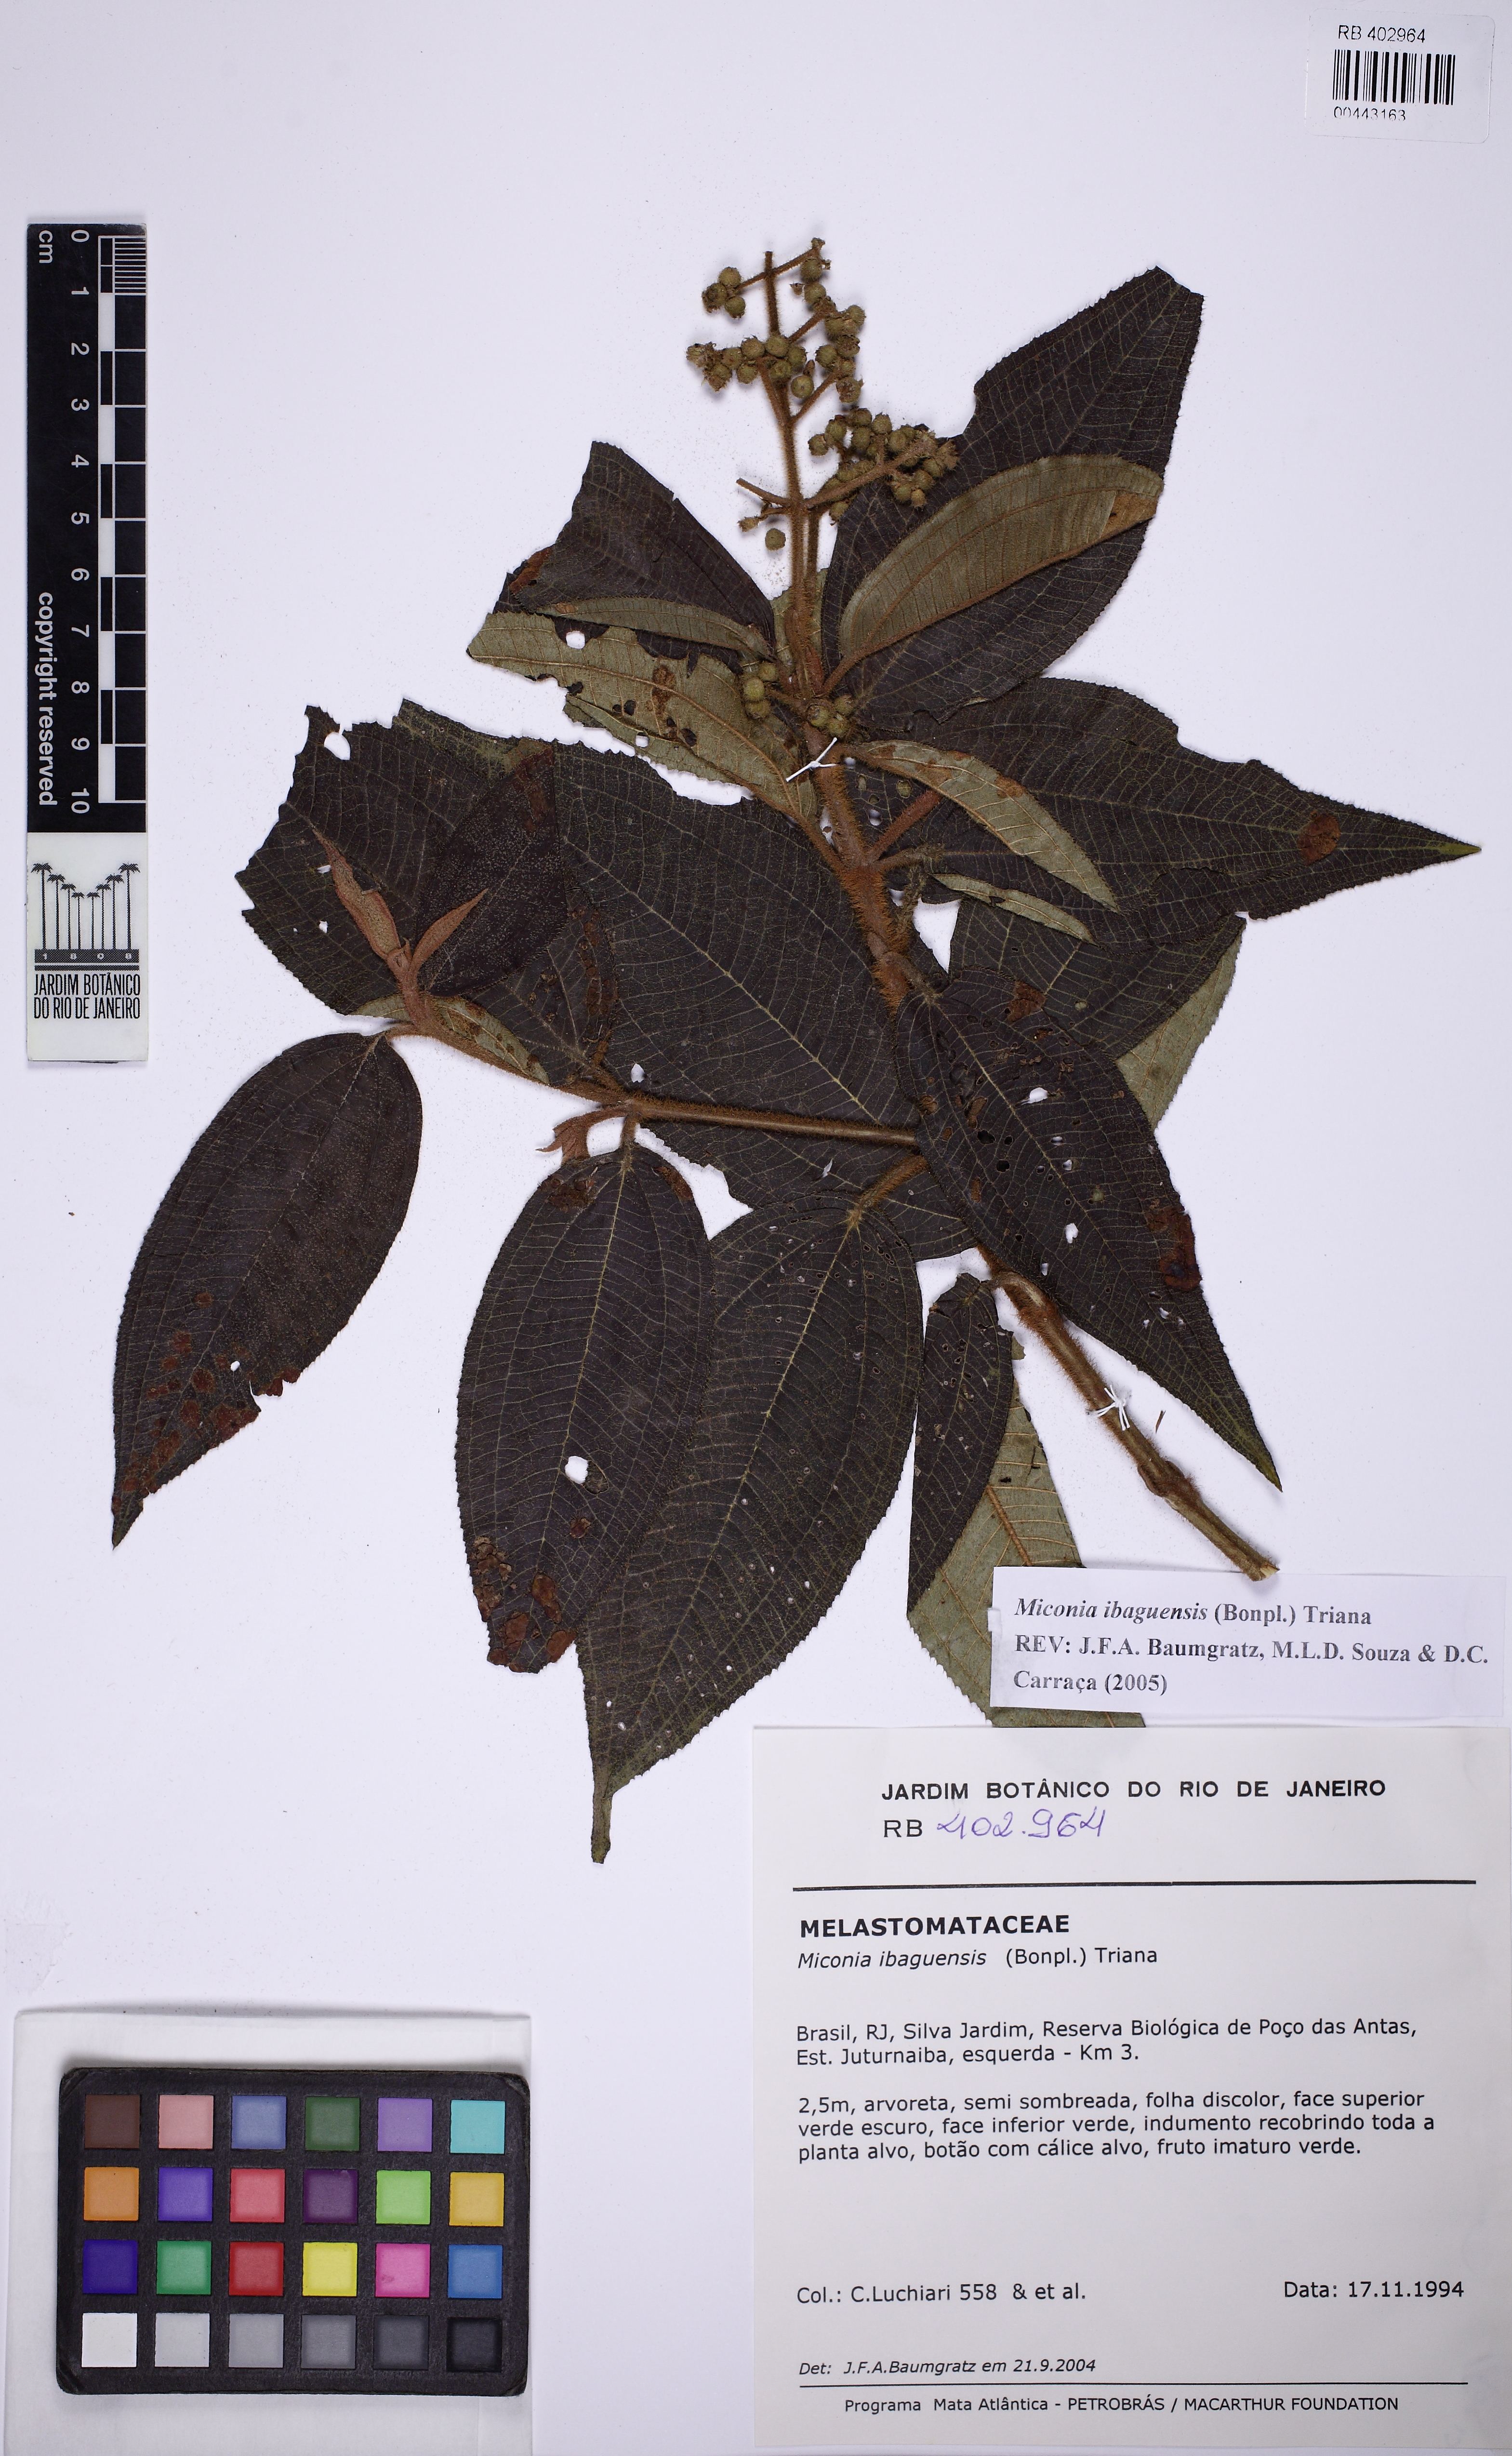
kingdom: Plantae
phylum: Tracheophyta
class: Magnoliopsida
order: Myrtales
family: Melastomataceae
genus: Miconia
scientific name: Miconia ibaguensis
